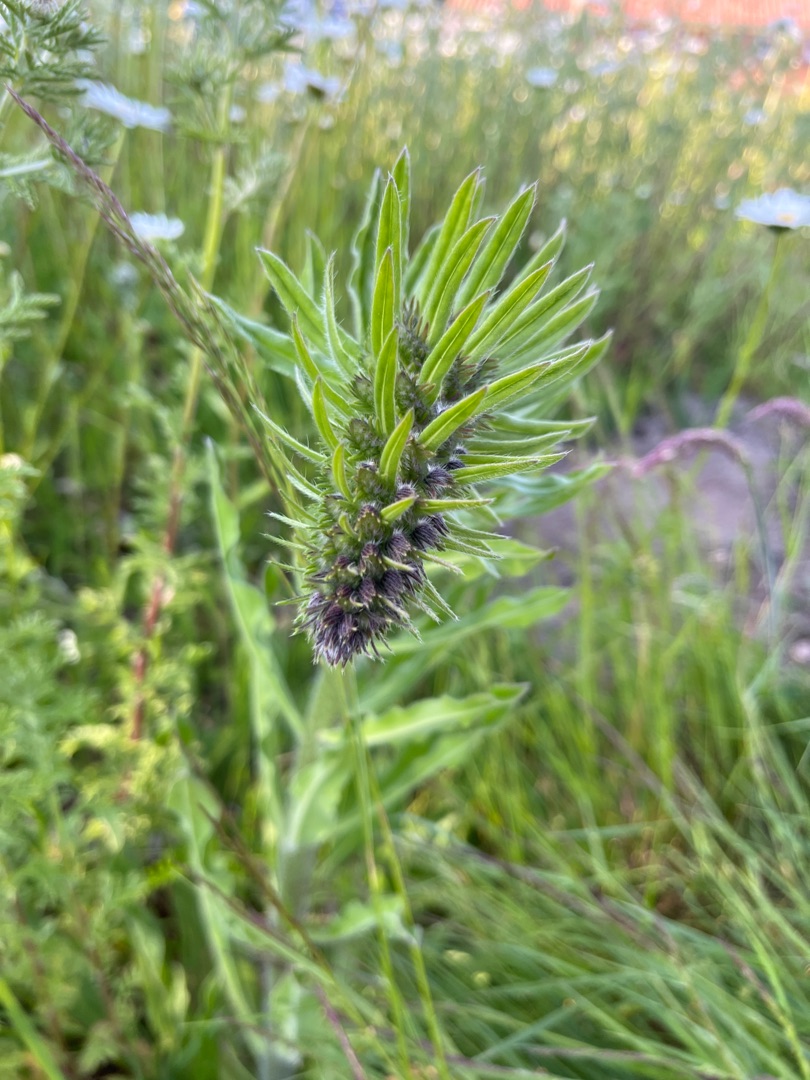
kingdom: Plantae
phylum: Tracheophyta
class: Magnoliopsida
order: Boraginales
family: Boraginaceae
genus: Echium
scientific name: Echium vulgare
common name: Slangehoved
